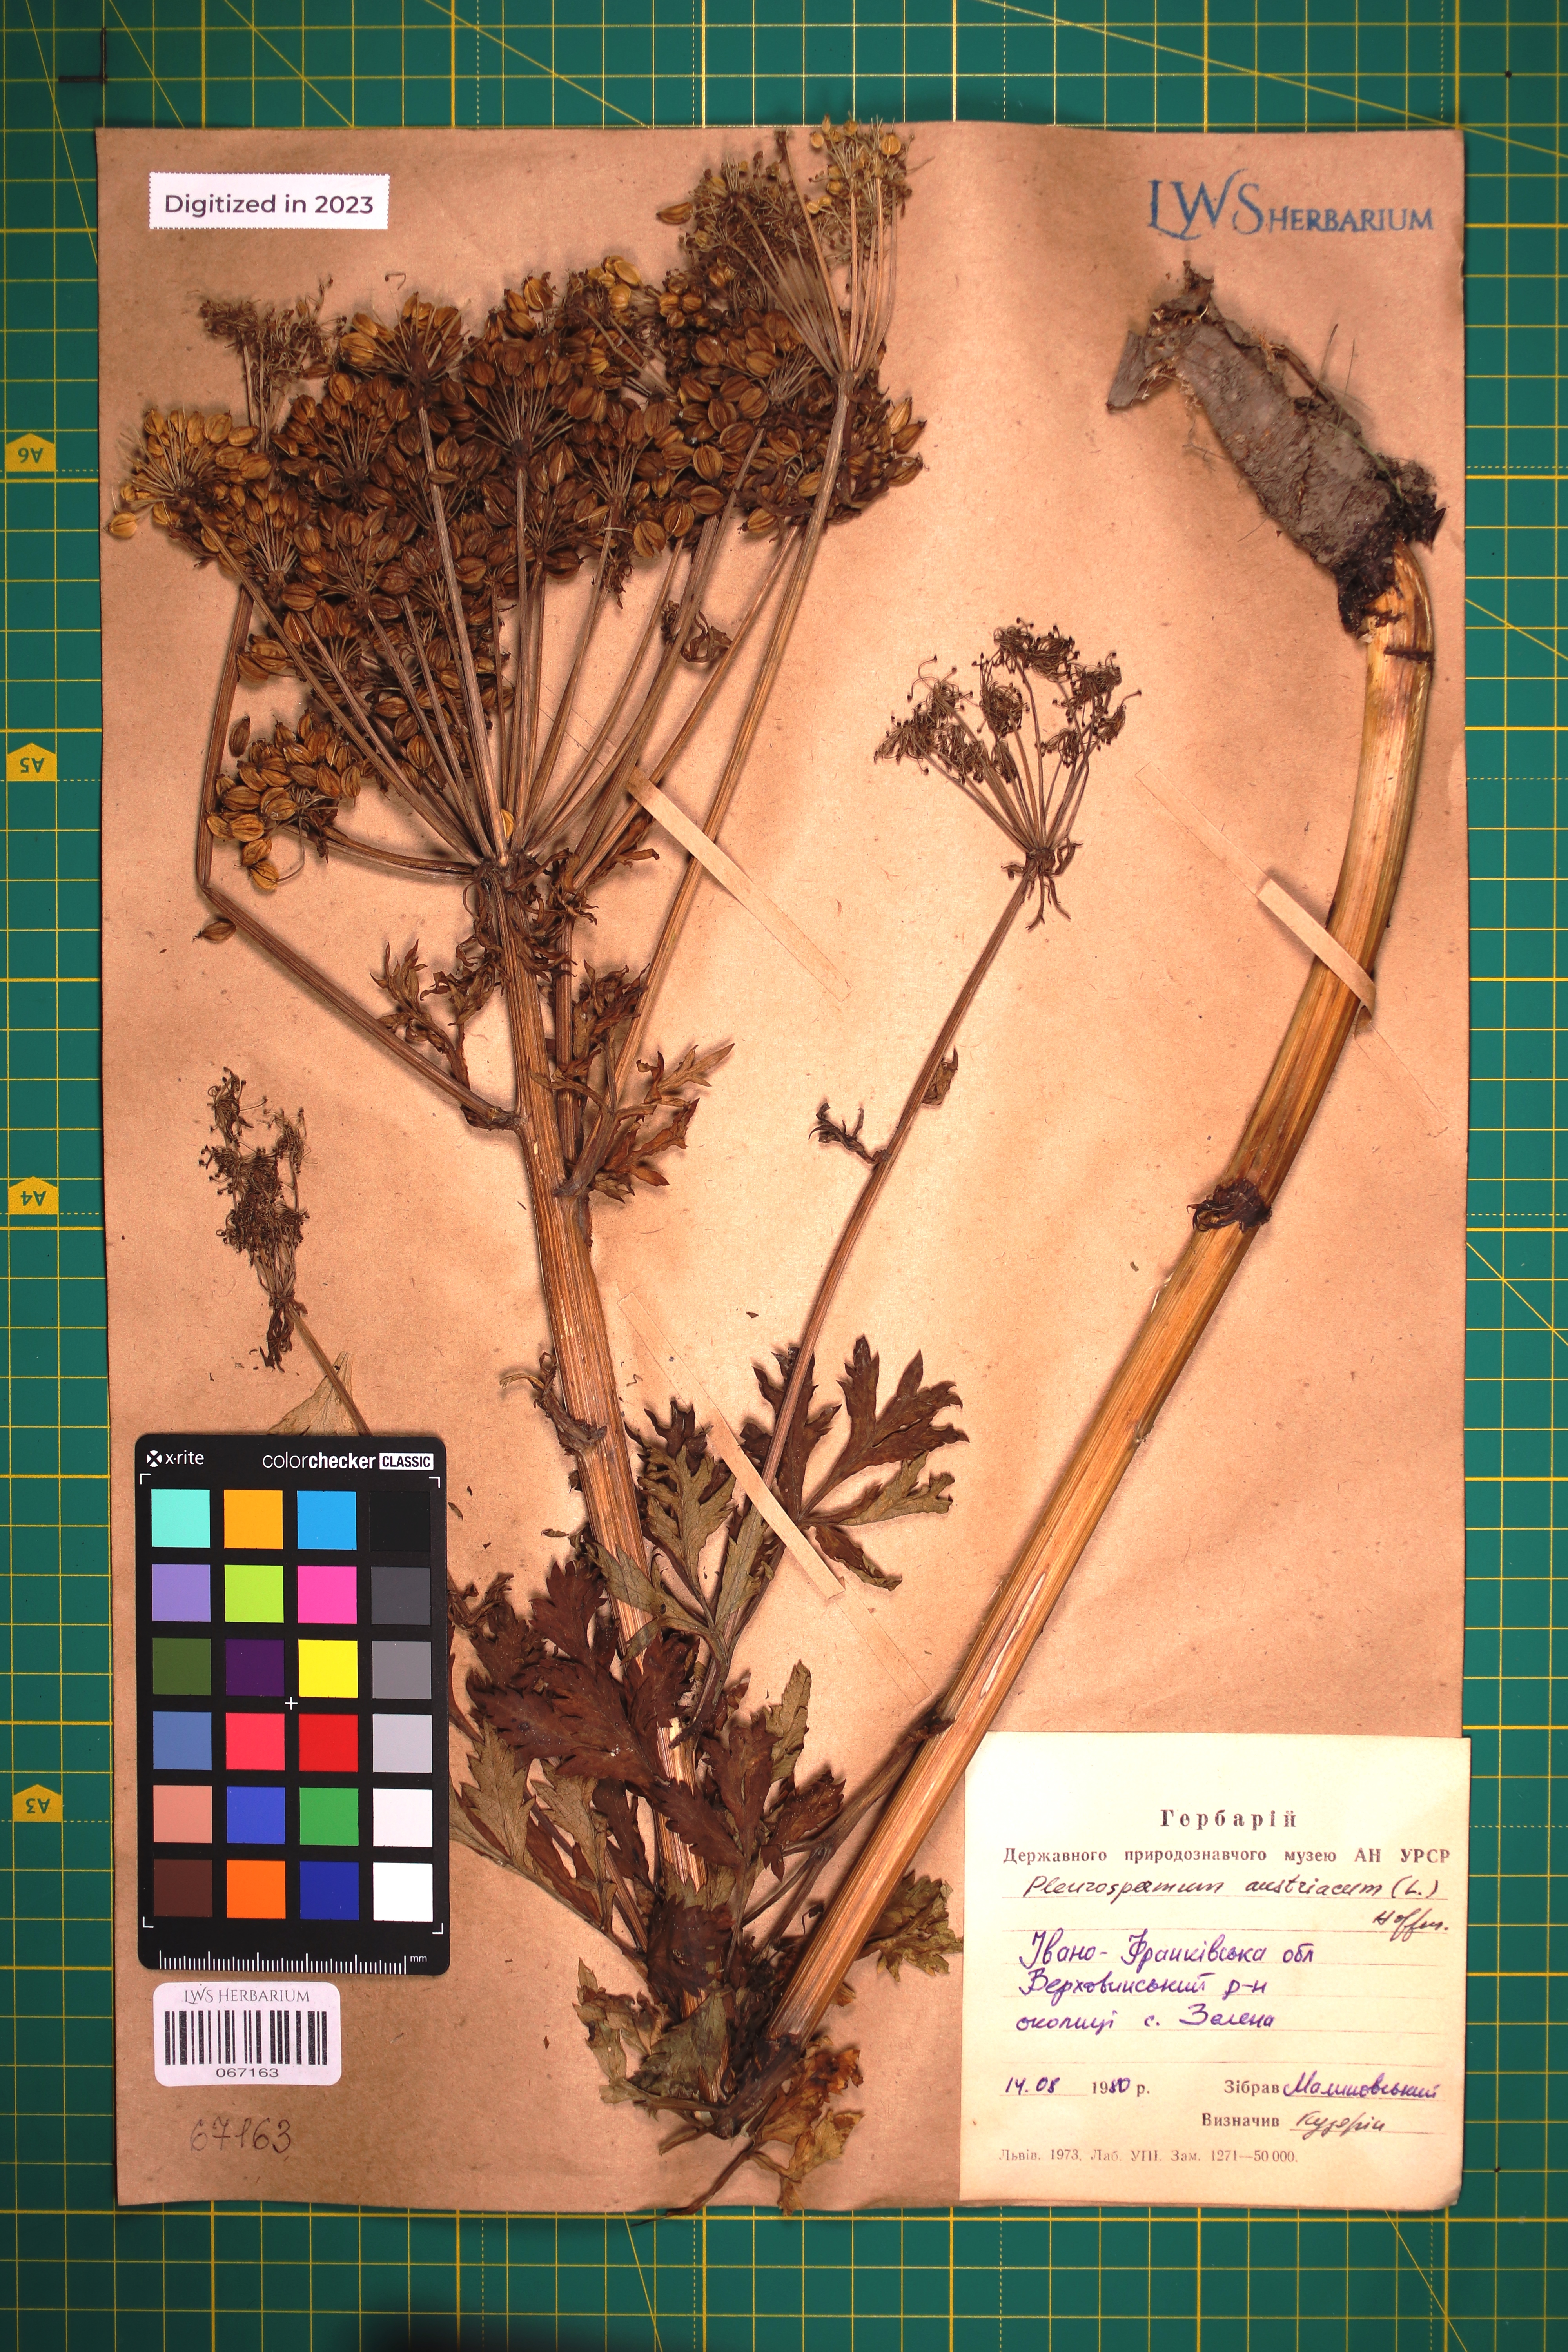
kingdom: Plantae
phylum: Tracheophyta
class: Magnoliopsida
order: Apiales
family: Apiaceae
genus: Pleurospermum
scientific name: Pleurospermum austriacum
